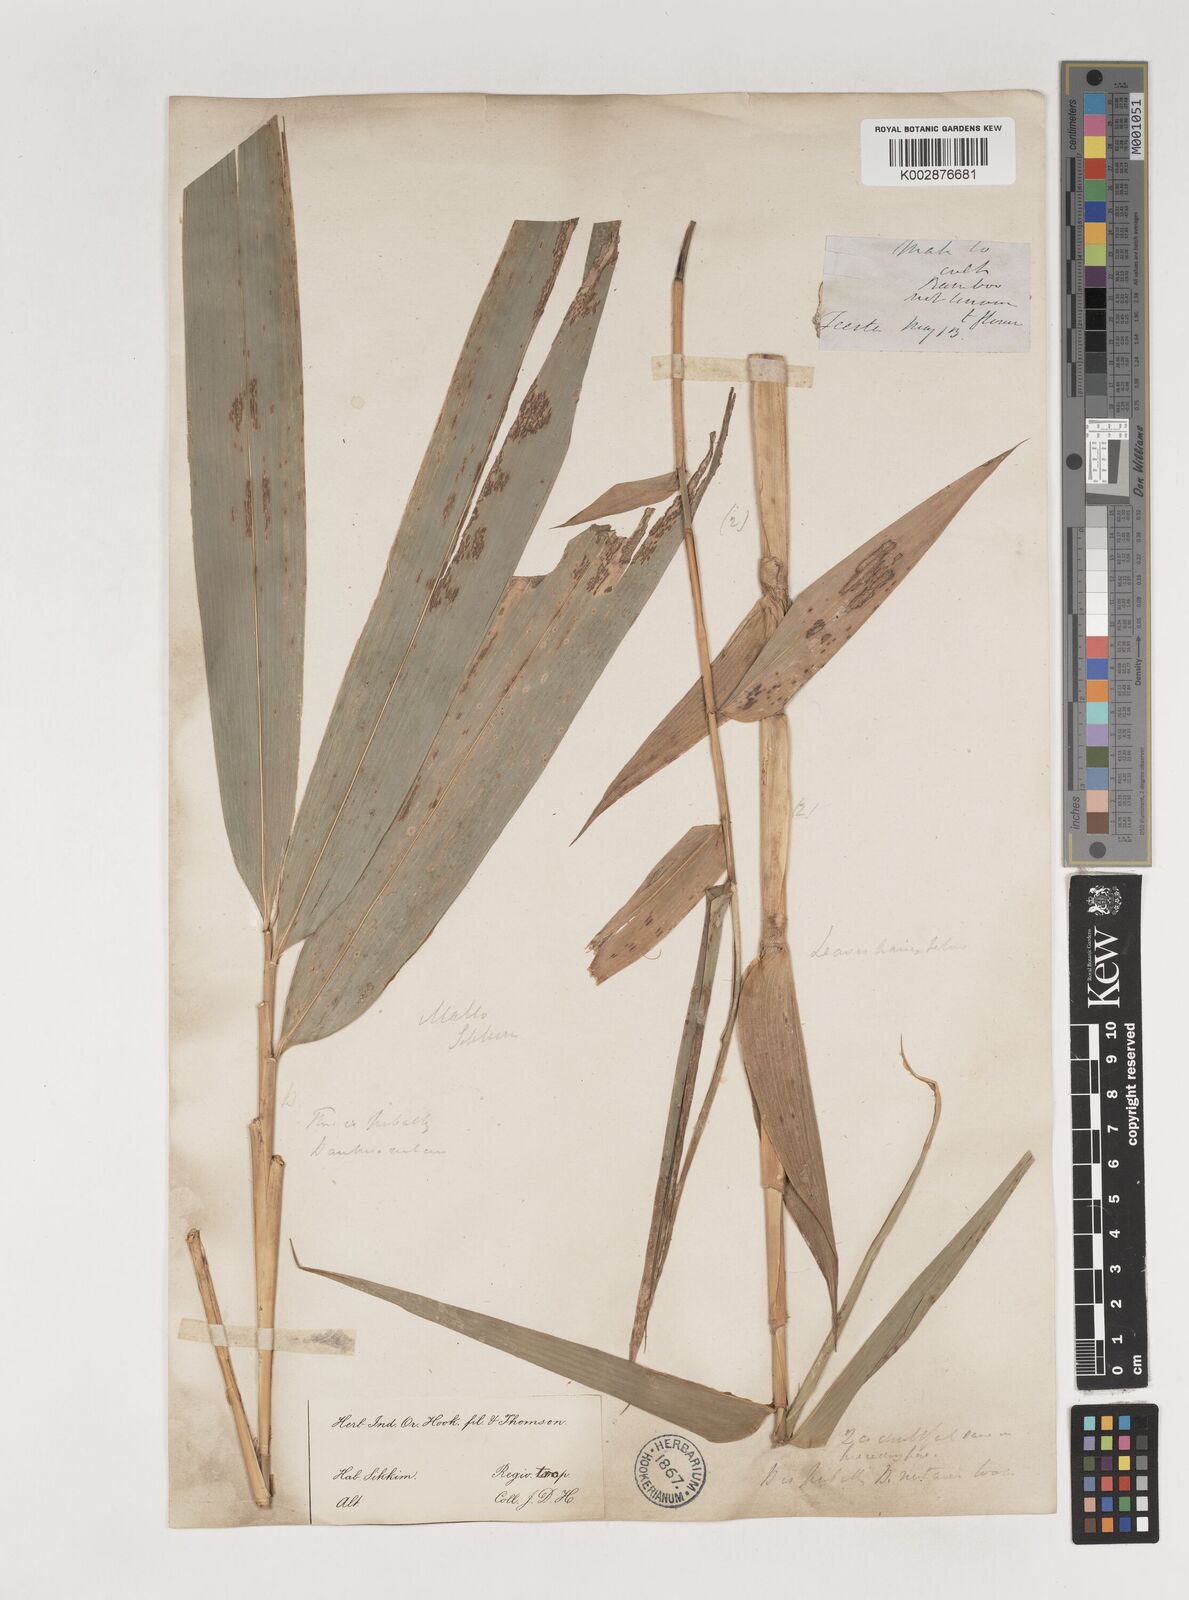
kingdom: Plantae
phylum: Tracheophyta
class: Liliopsida
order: Poales
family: Poaceae
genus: Bambusa
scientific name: Bambusa nutans
